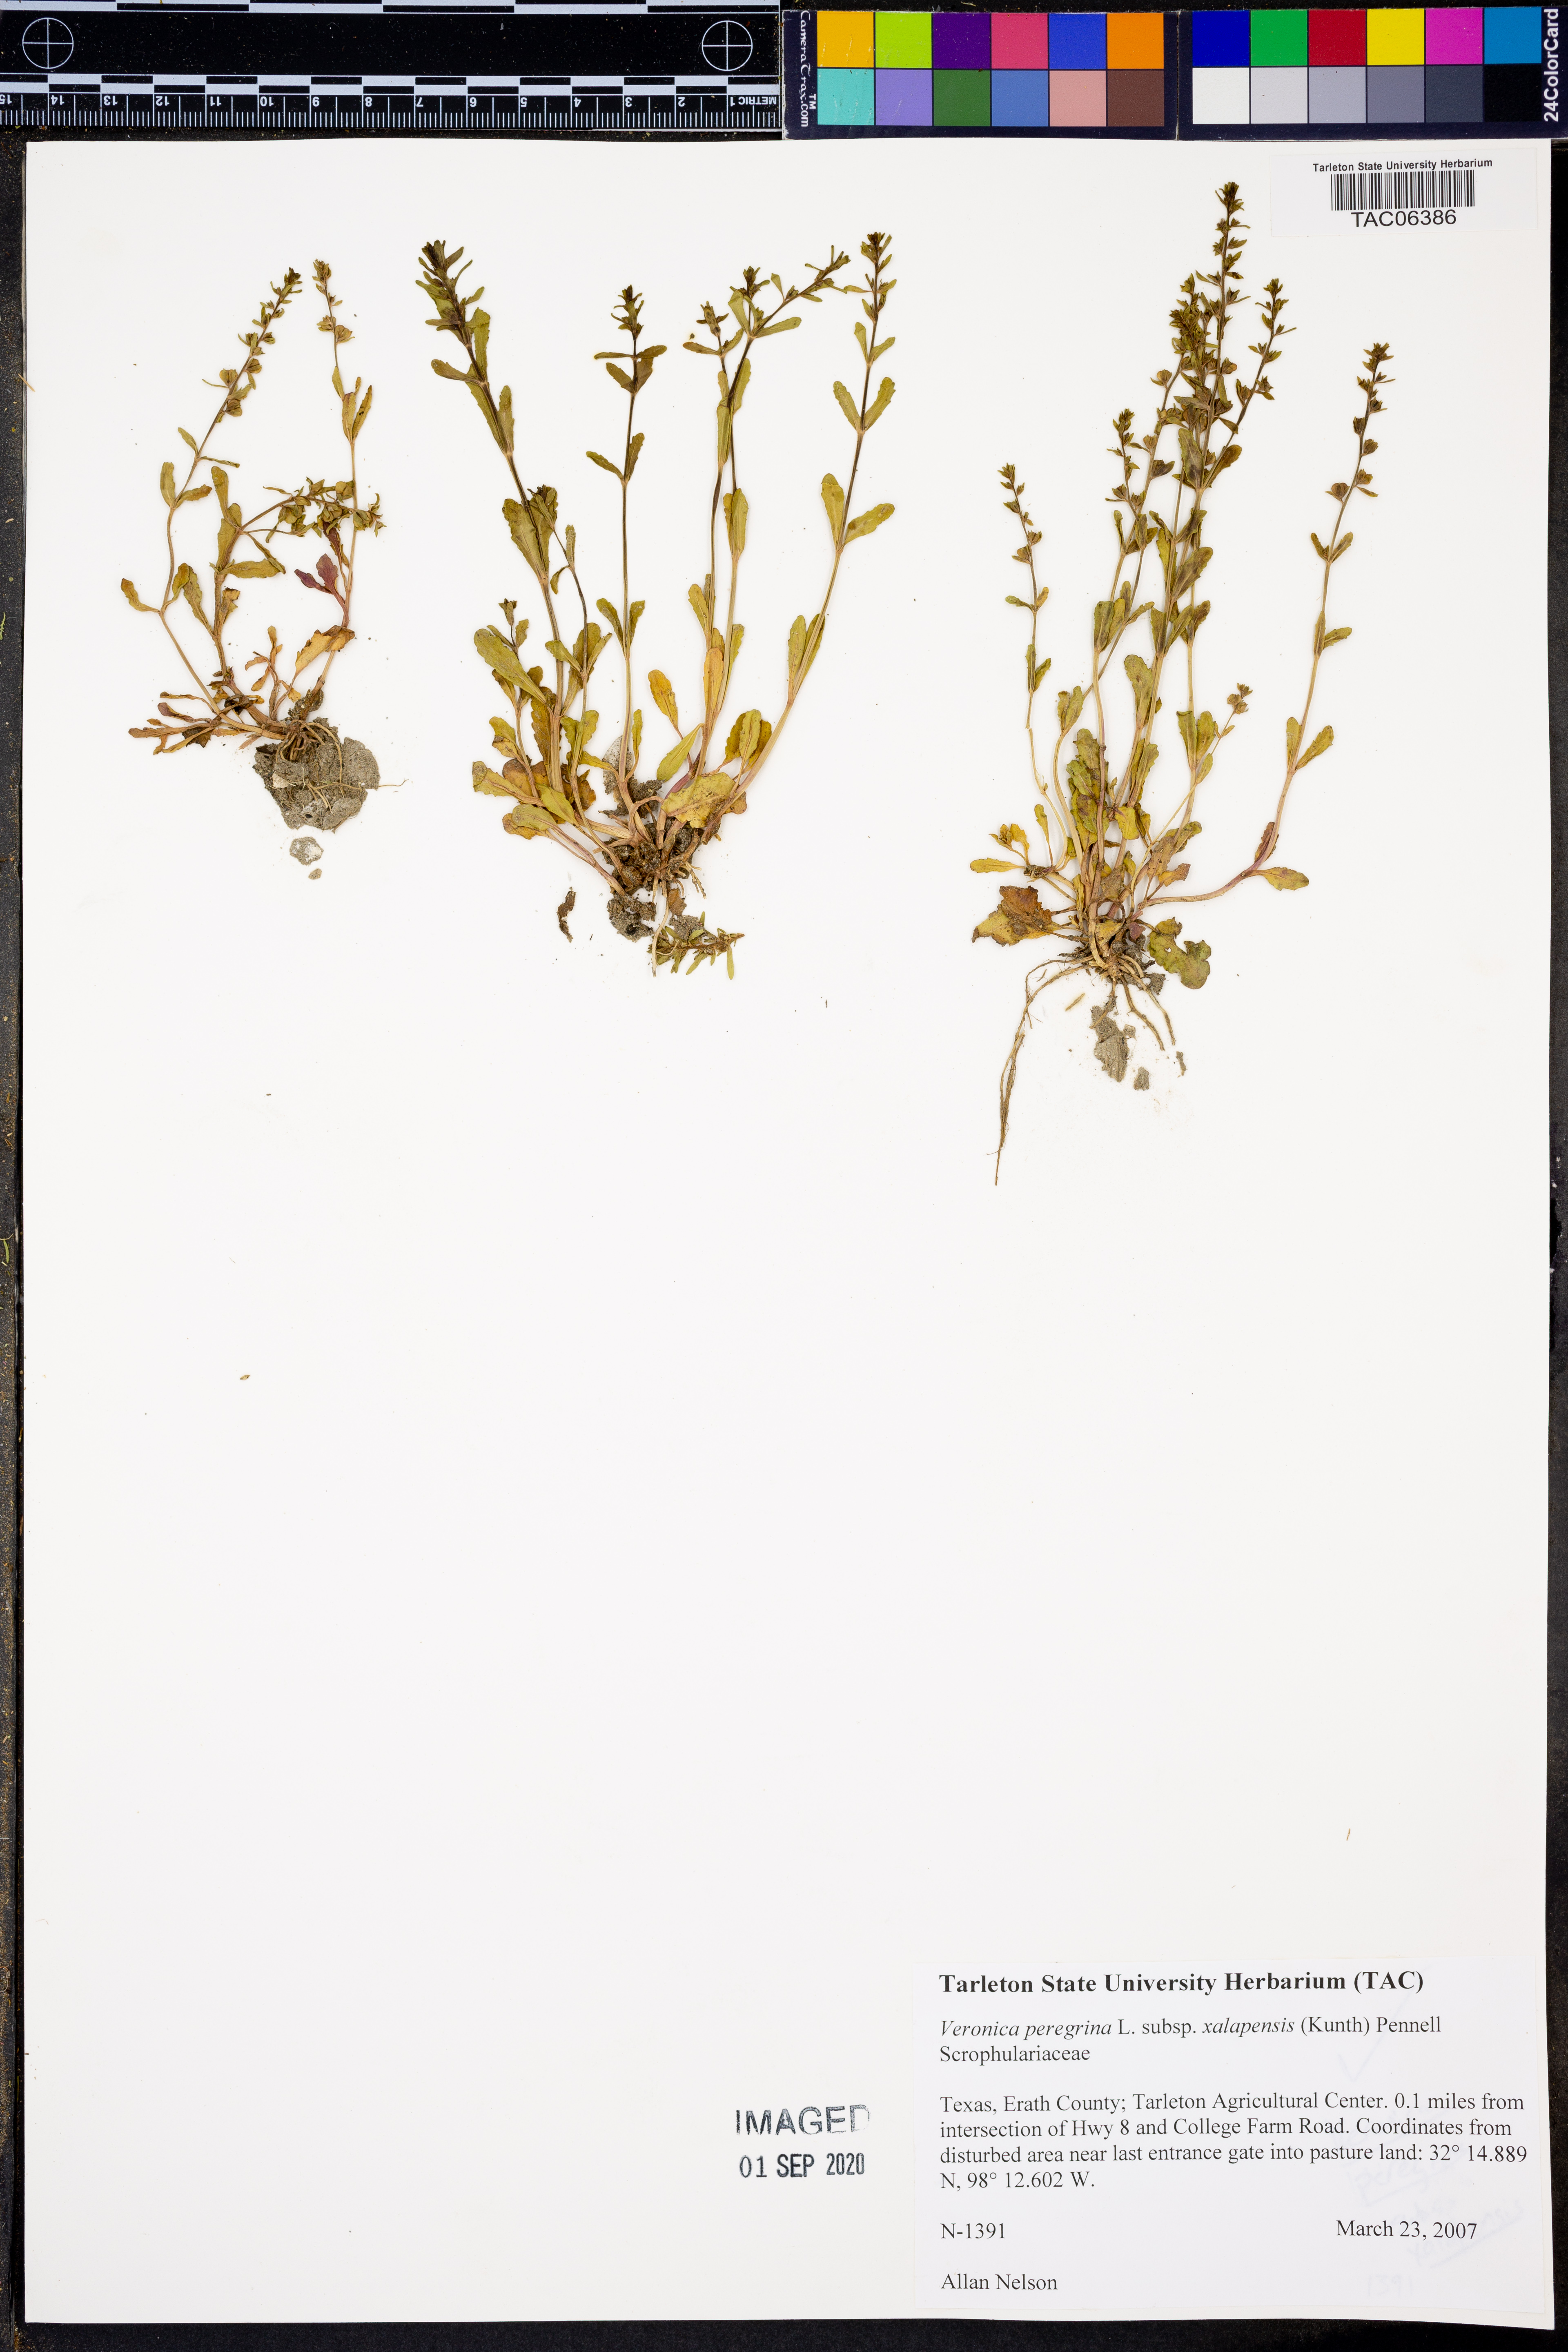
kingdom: Plantae
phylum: Tracheophyta
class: Magnoliopsida
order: Lamiales
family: Plantaginaceae
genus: Veronica
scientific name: Veronica peregrina
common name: Neckweed
